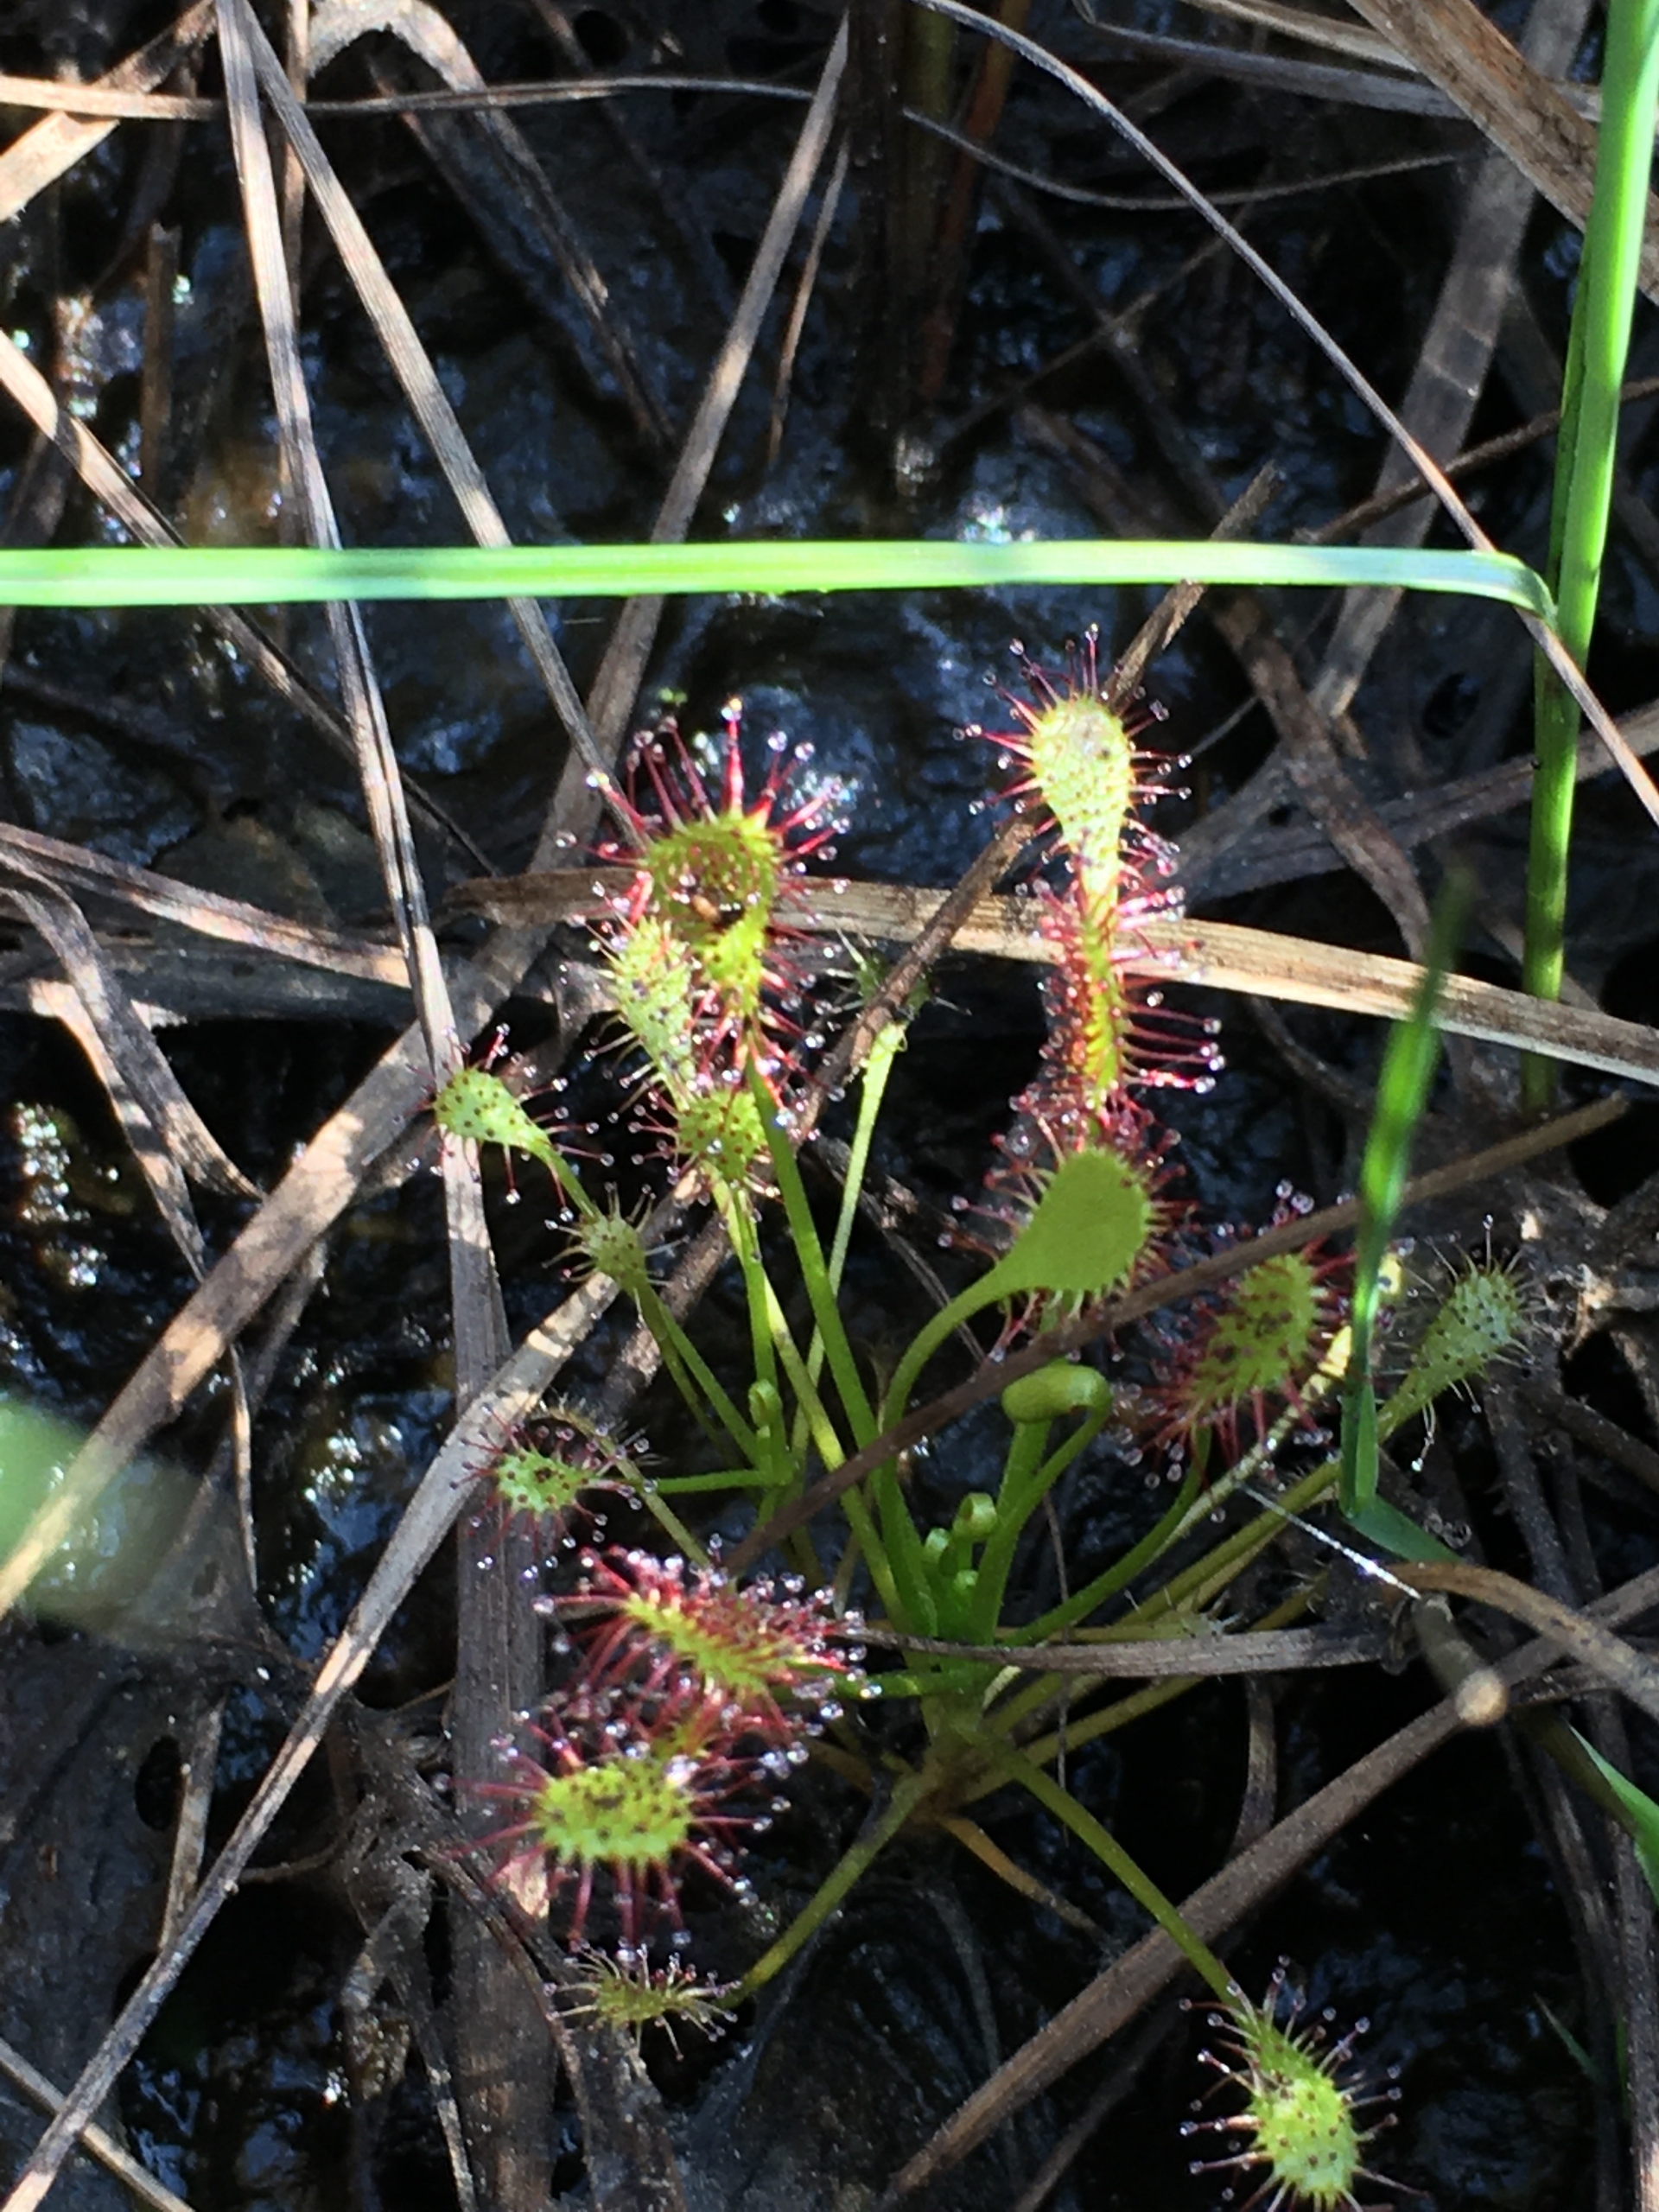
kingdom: Plantae
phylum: Tracheophyta
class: Magnoliopsida
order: Caryophyllales
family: Droseraceae
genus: Drosera
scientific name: Drosera intermedia
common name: Liden soldug
